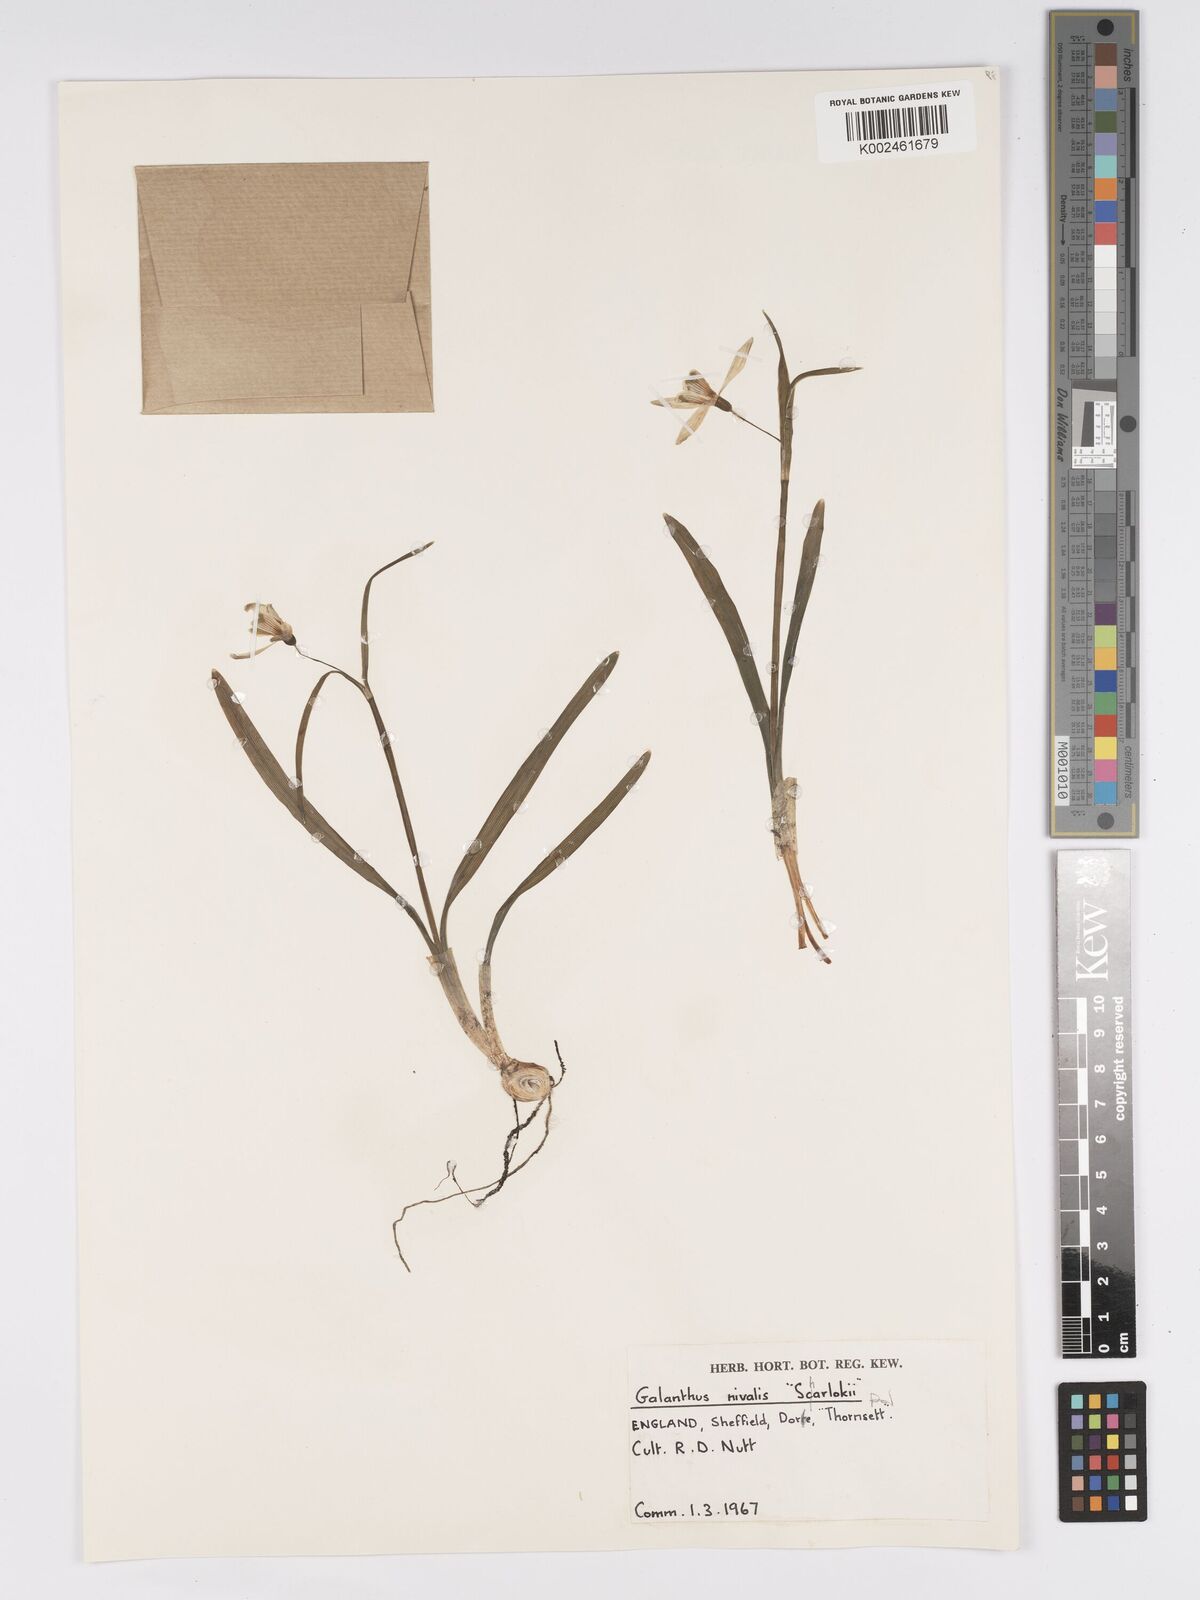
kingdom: Plantae
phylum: Tracheophyta
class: Liliopsida
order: Asparagales
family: Amaryllidaceae
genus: Galanthus
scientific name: Galanthus nivalis
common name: Snowdrop
